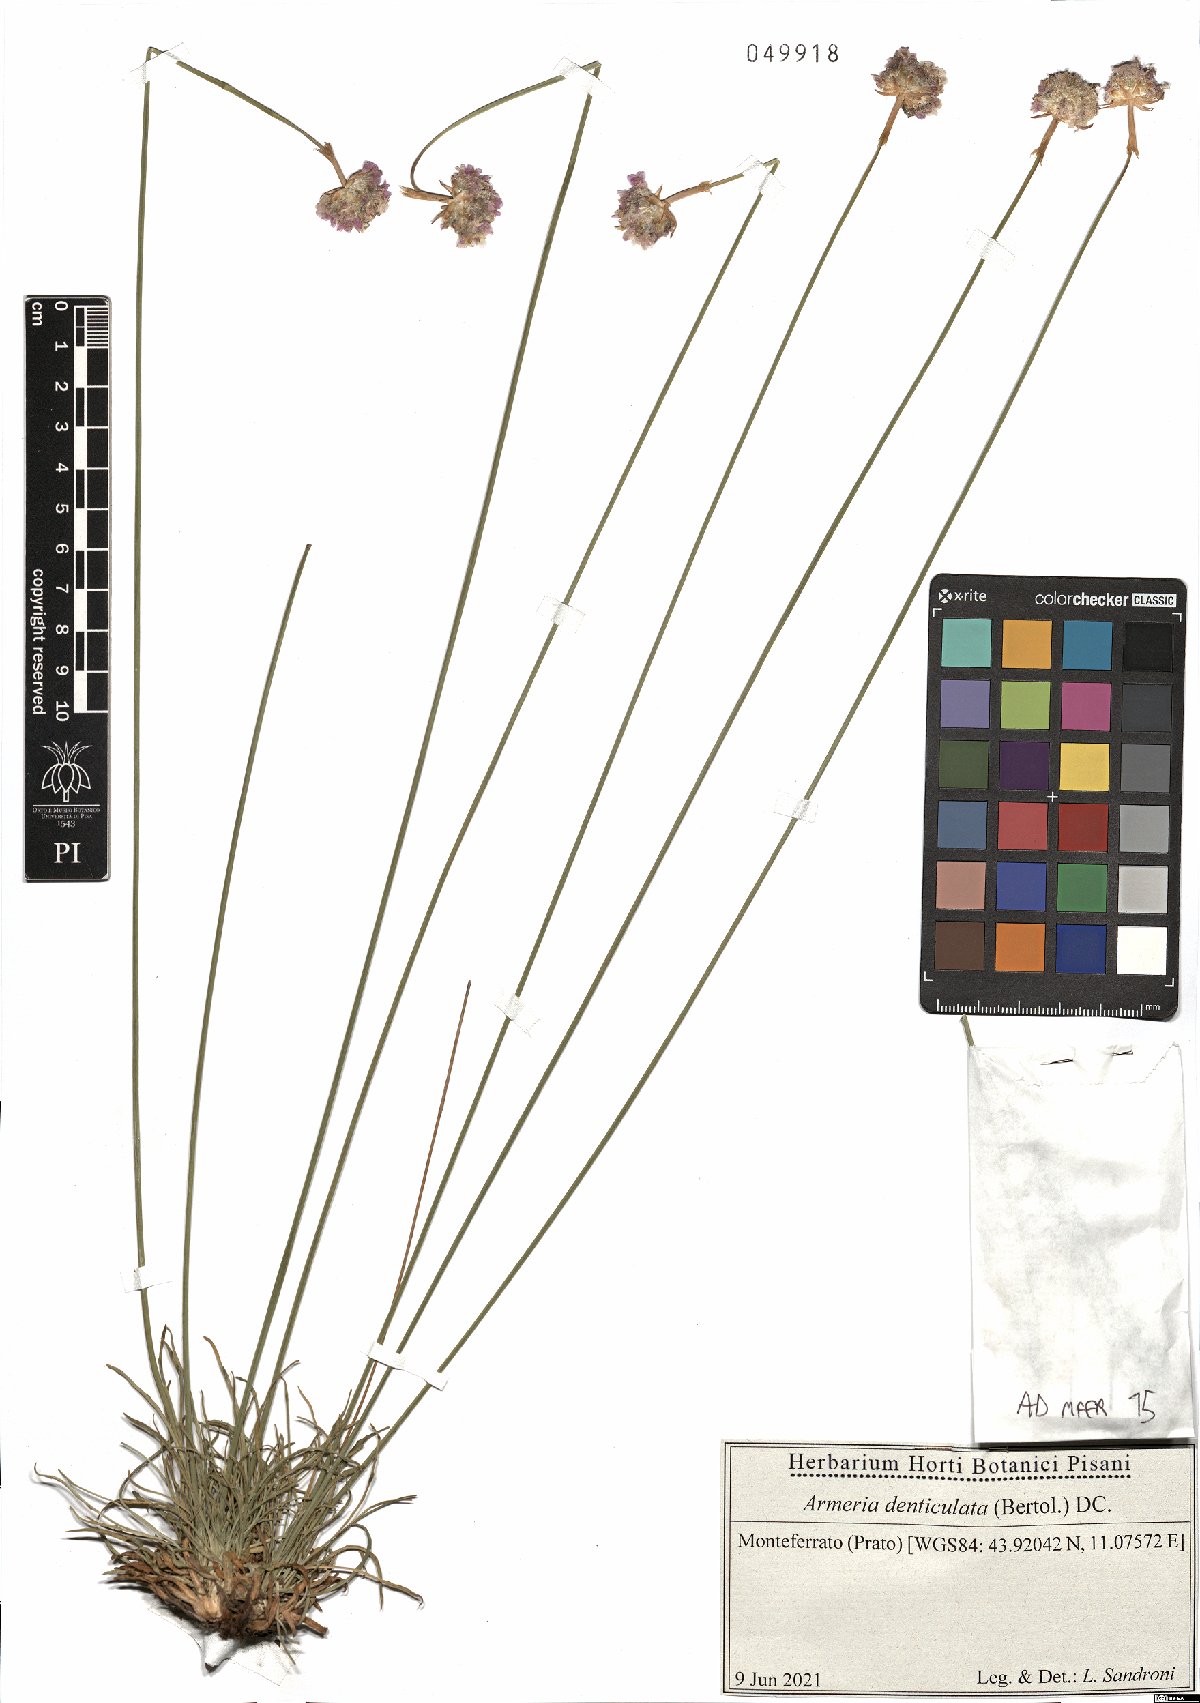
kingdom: Plantae
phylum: Tracheophyta
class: Magnoliopsida
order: Caryophyllales
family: Plumbaginaceae
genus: Armeria
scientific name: Armeria denticulata
